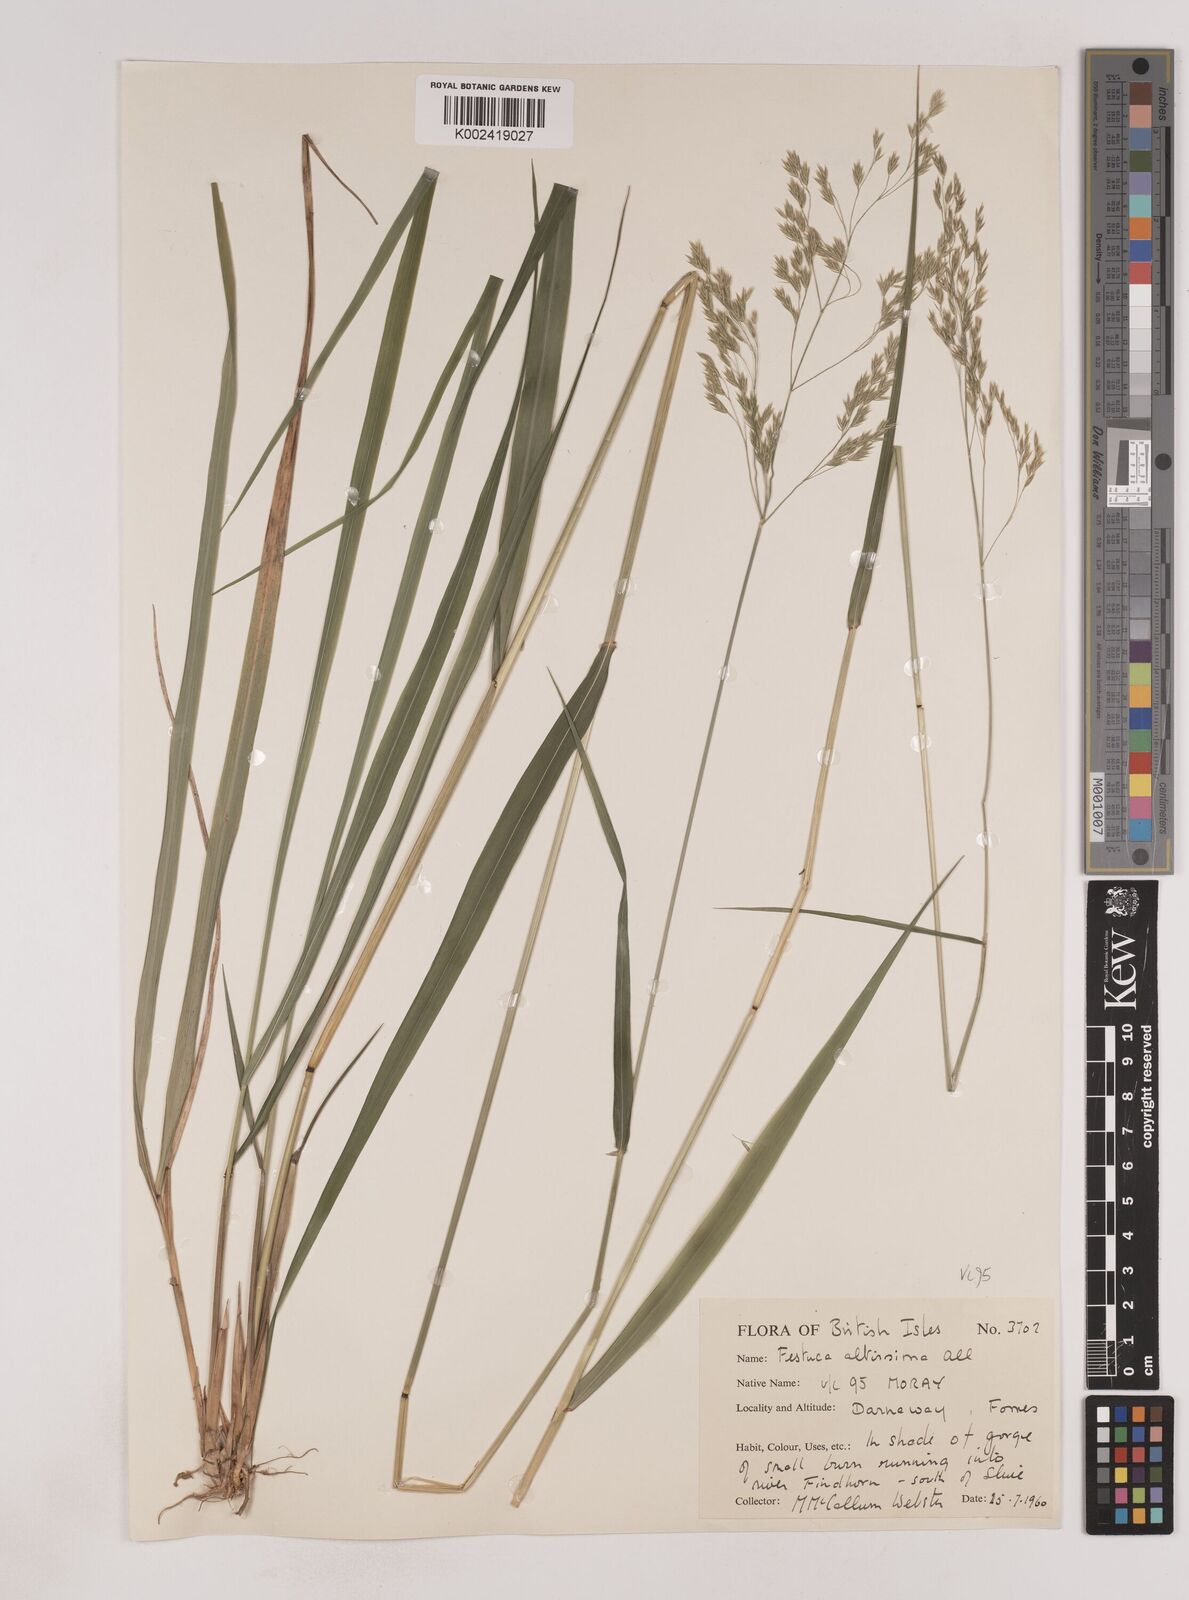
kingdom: Plantae
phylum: Tracheophyta
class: Liliopsida
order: Poales
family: Poaceae
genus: Festuca
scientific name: Festuca drymeja
